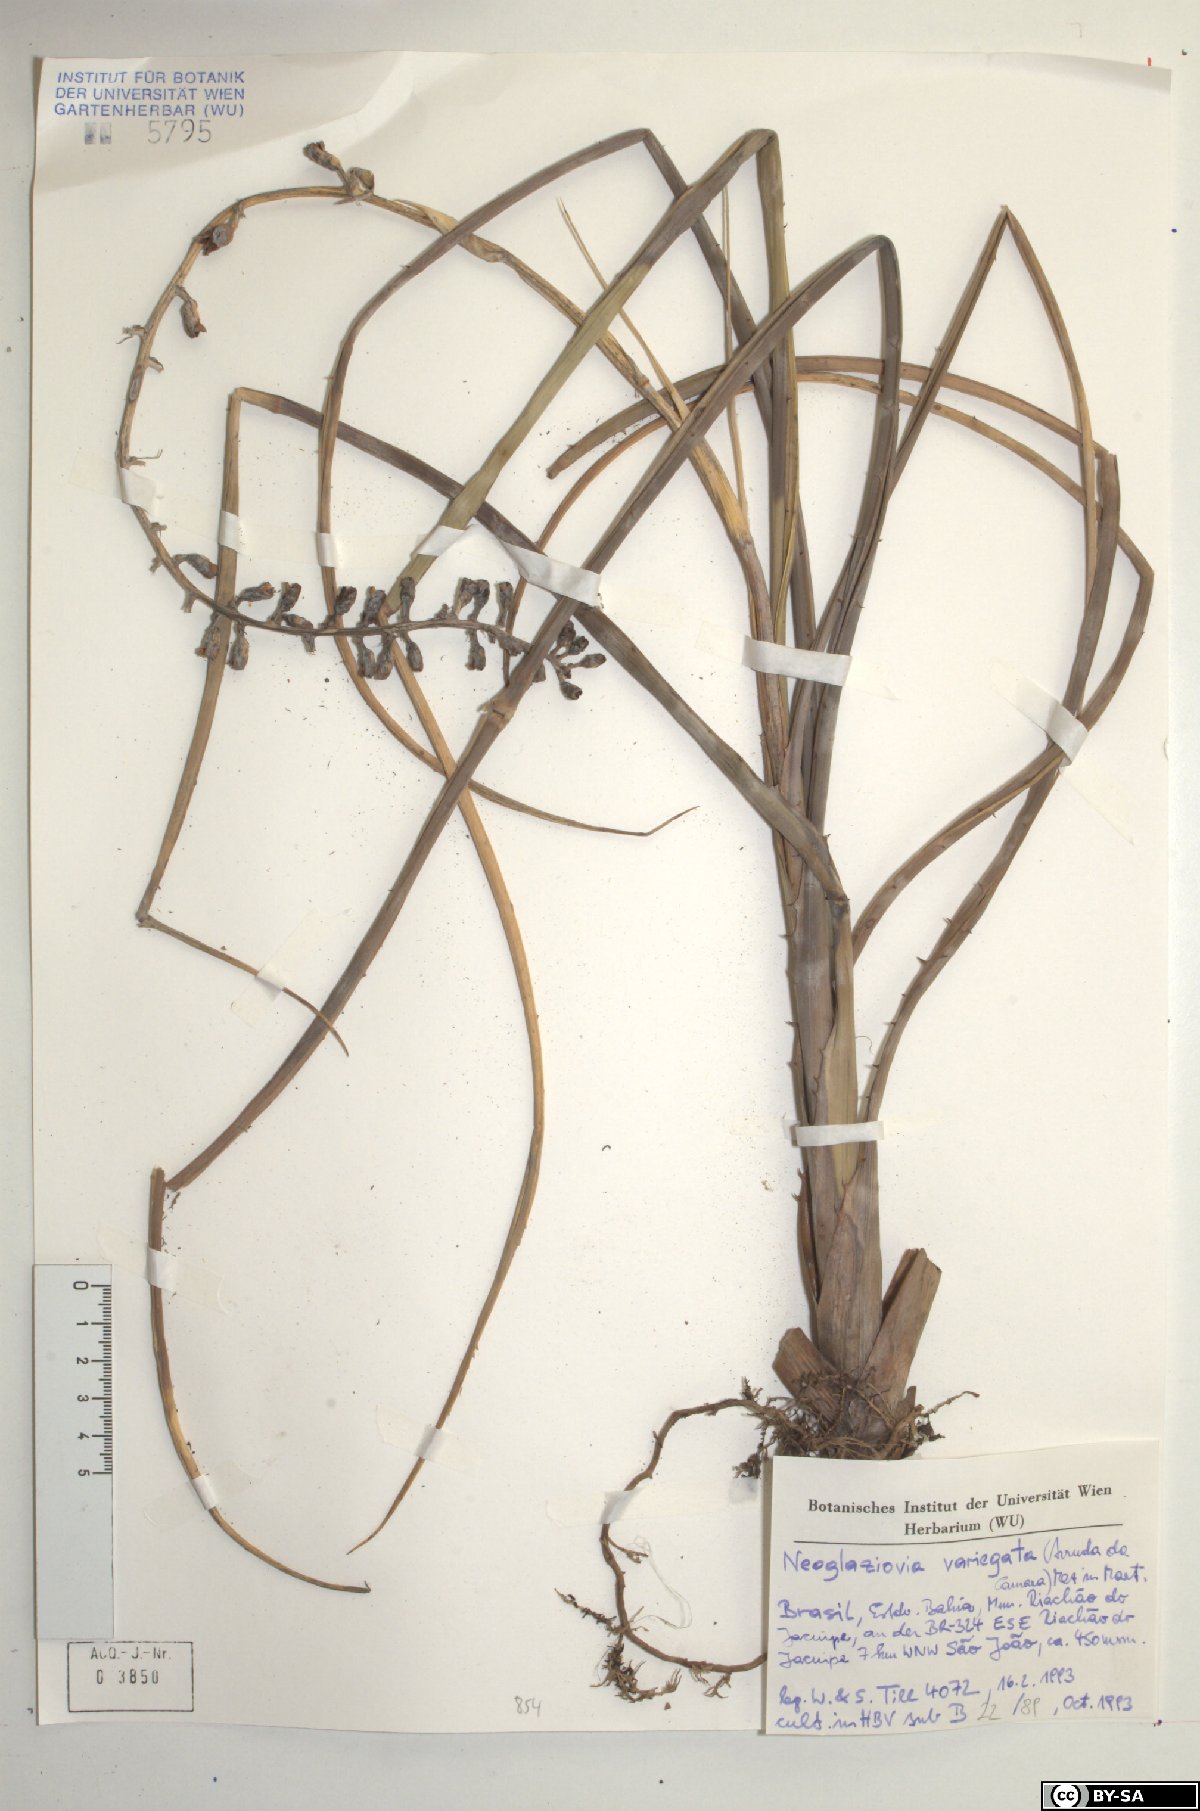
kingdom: Plantae
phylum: Tracheophyta
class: Liliopsida
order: Poales
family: Bromeliaceae
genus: Neoglaziovia
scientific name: Neoglaziovia variegata
